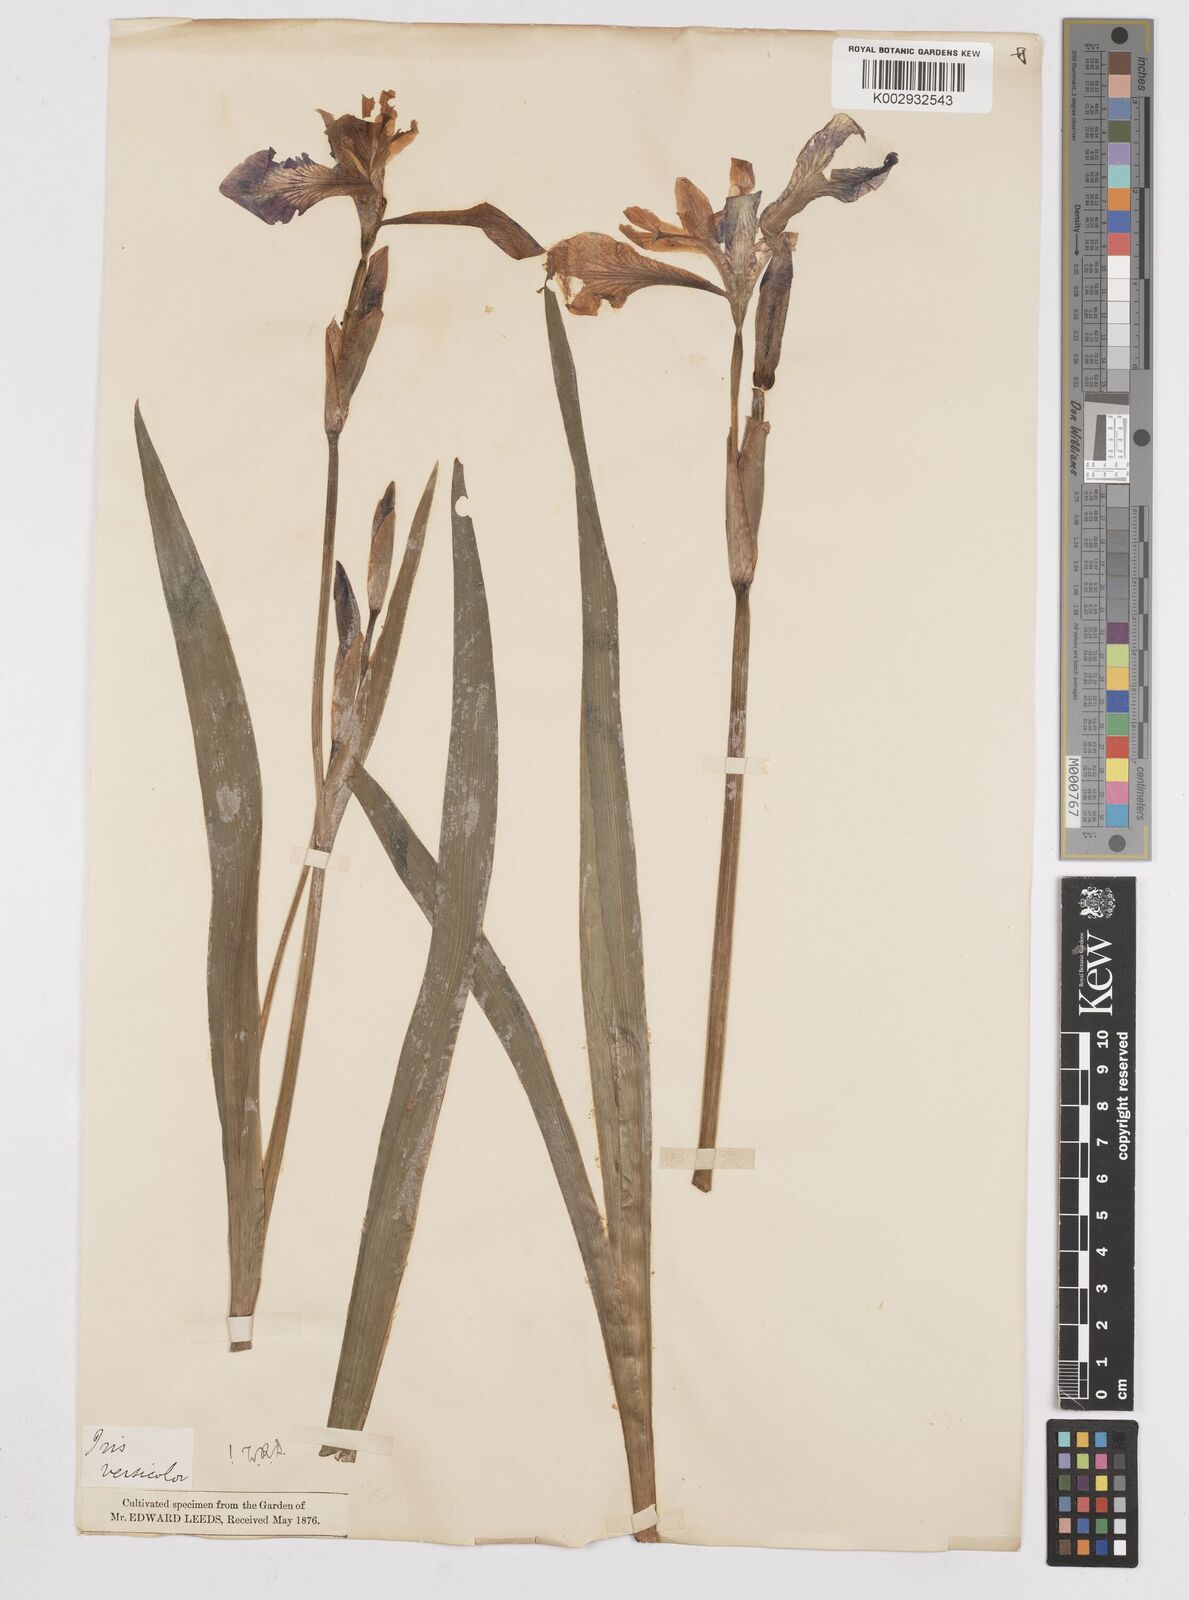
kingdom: Plantae
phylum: Tracheophyta
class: Liliopsida
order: Asparagales
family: Iridaceae
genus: Iris
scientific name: Iris versicolor
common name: Purple iris
